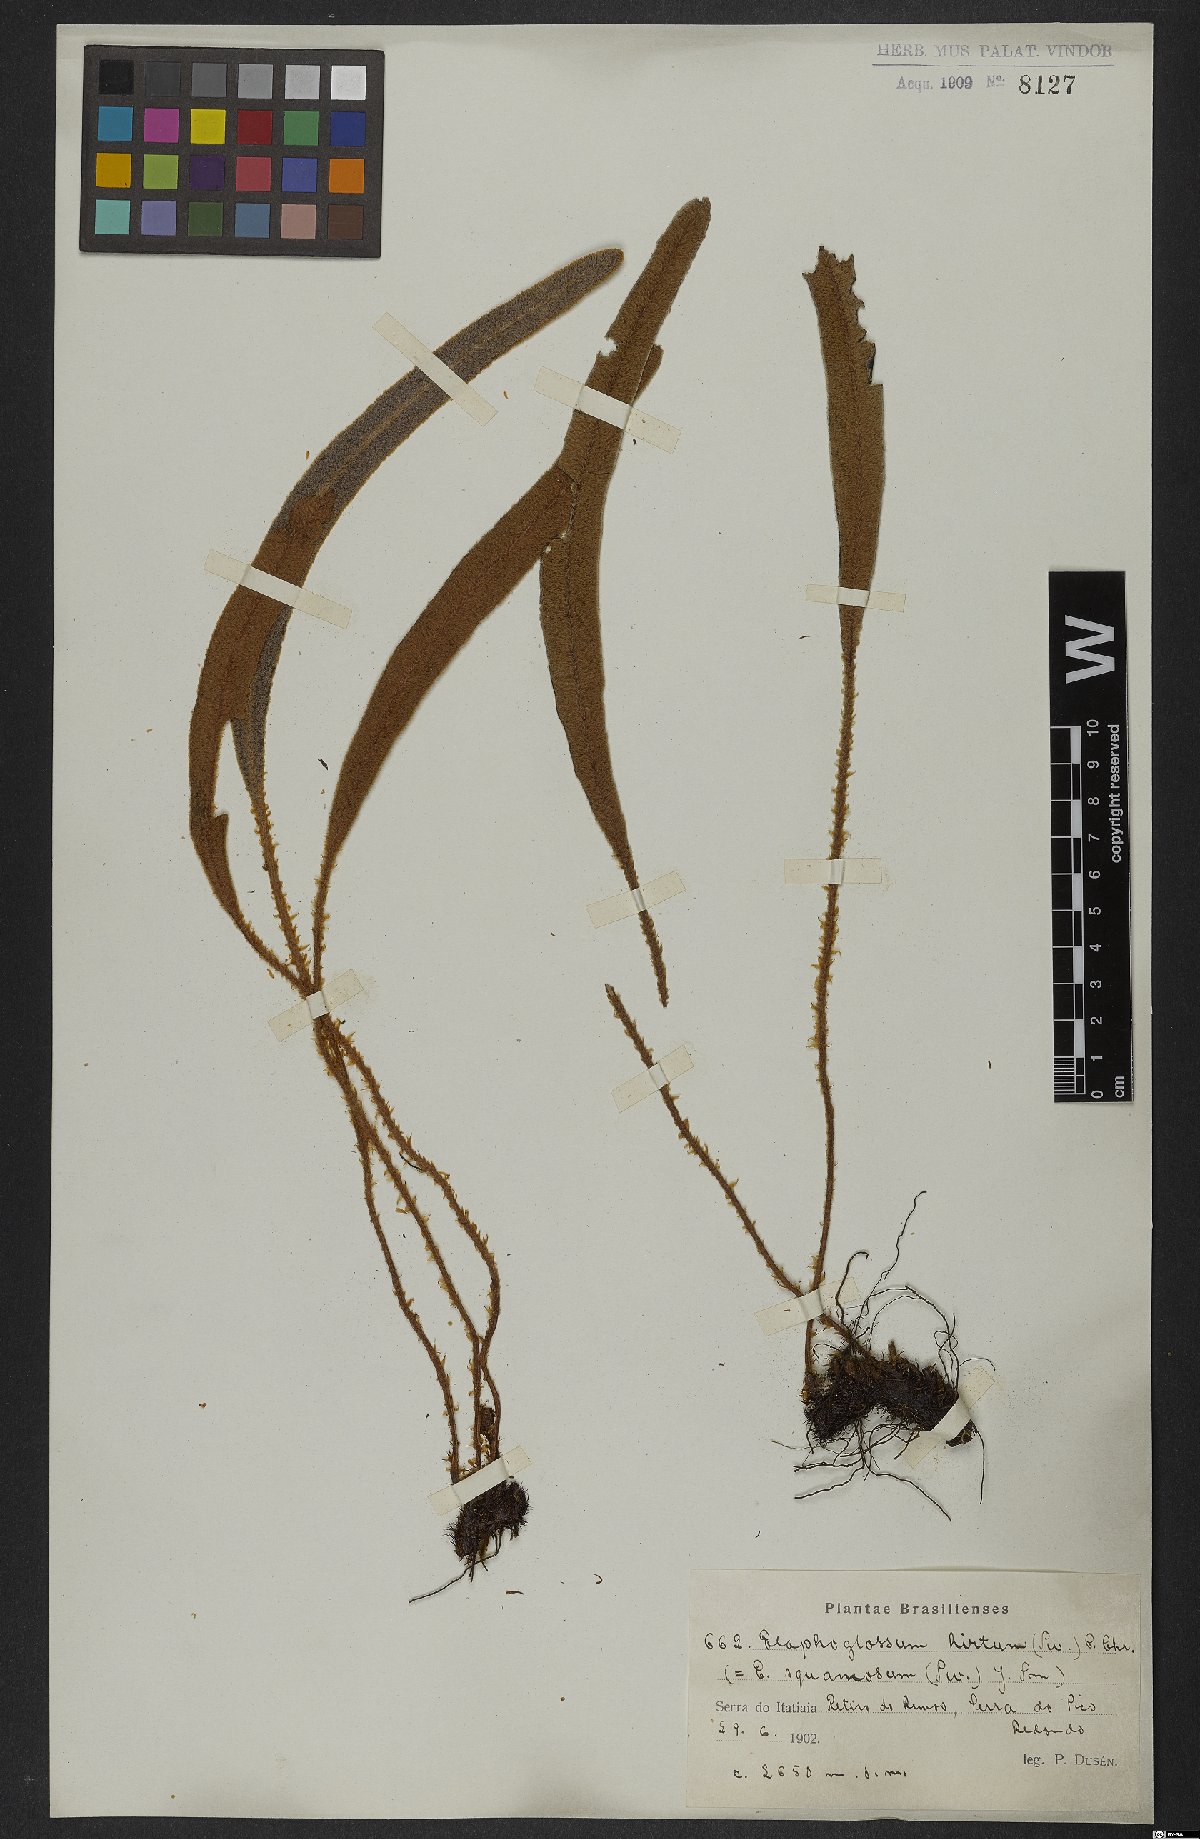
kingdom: Plantae
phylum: Tracheophyta
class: Polypodiopsida
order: Polypodiales
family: Dryopteridaceae
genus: Elaphoglossum
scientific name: Elaphoglossum hirtum
